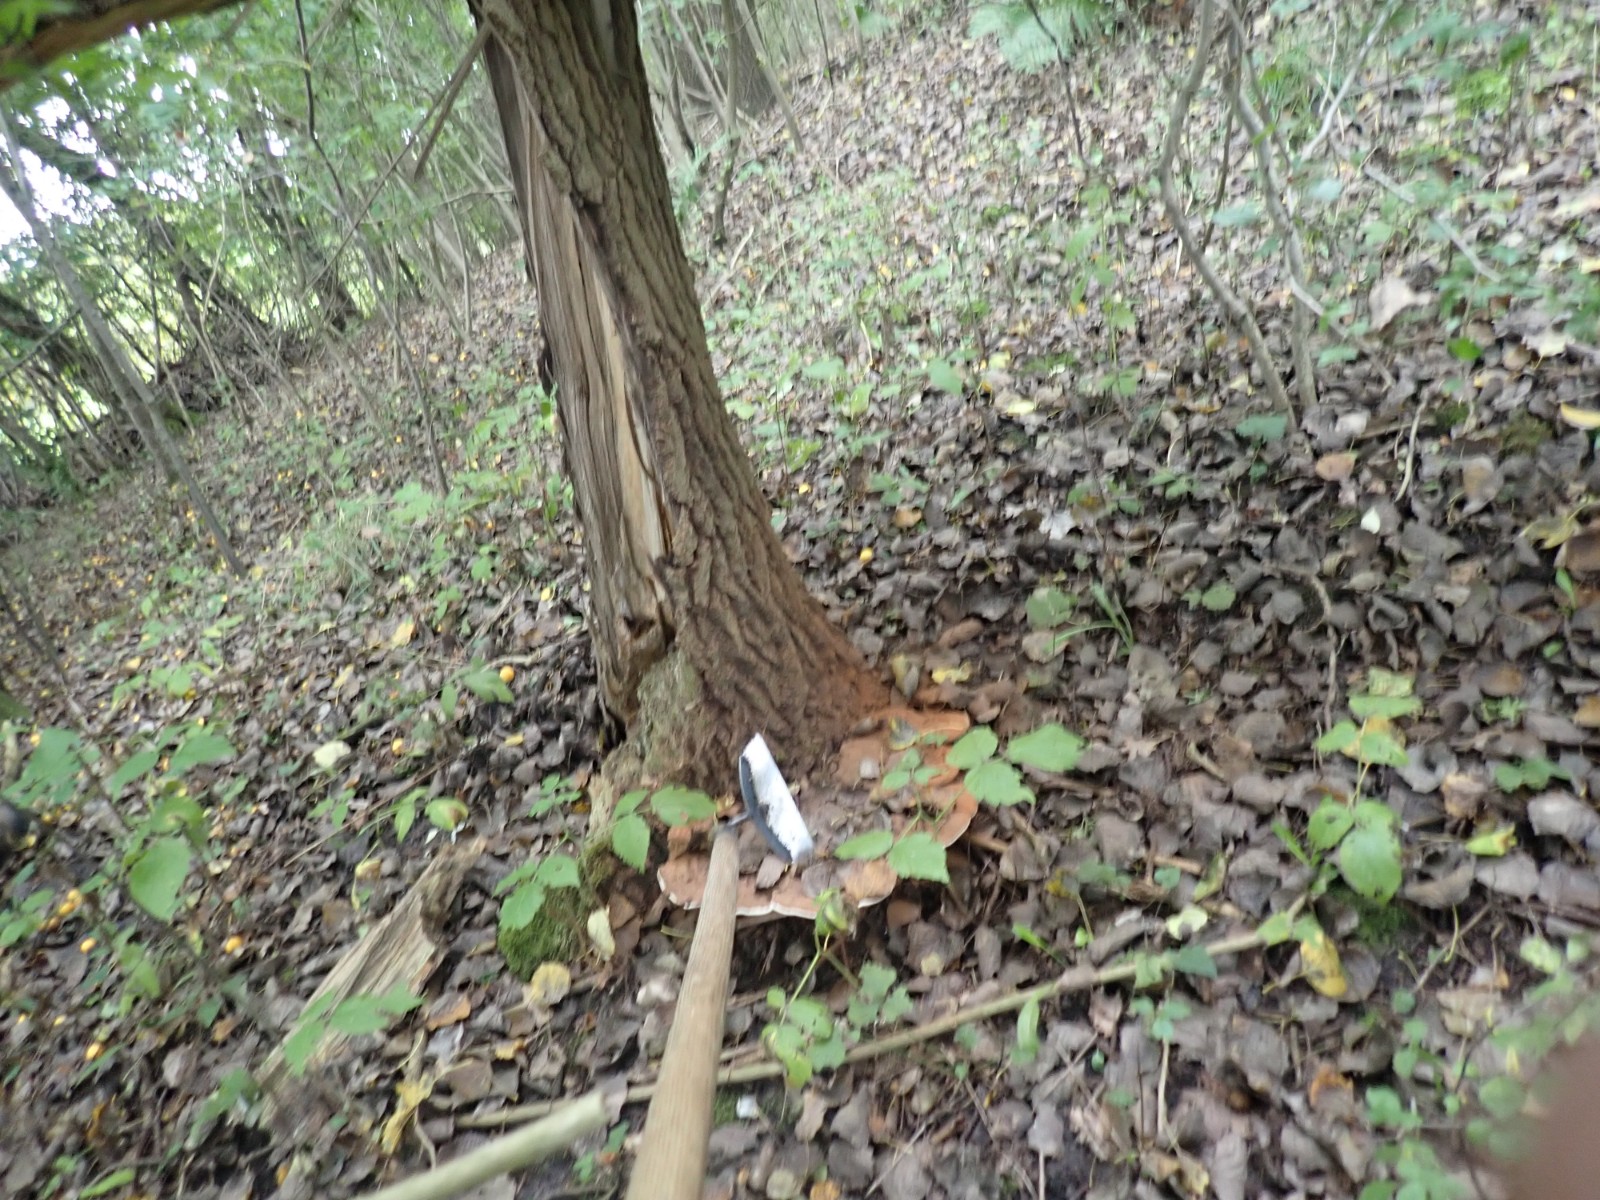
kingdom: Fungi
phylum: Basidiomycota
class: Agaricomycetes
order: Polyporales
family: Polyporaceae
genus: Ganoderma
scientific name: Ganoderma applanatum
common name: flad lakporesvamp
